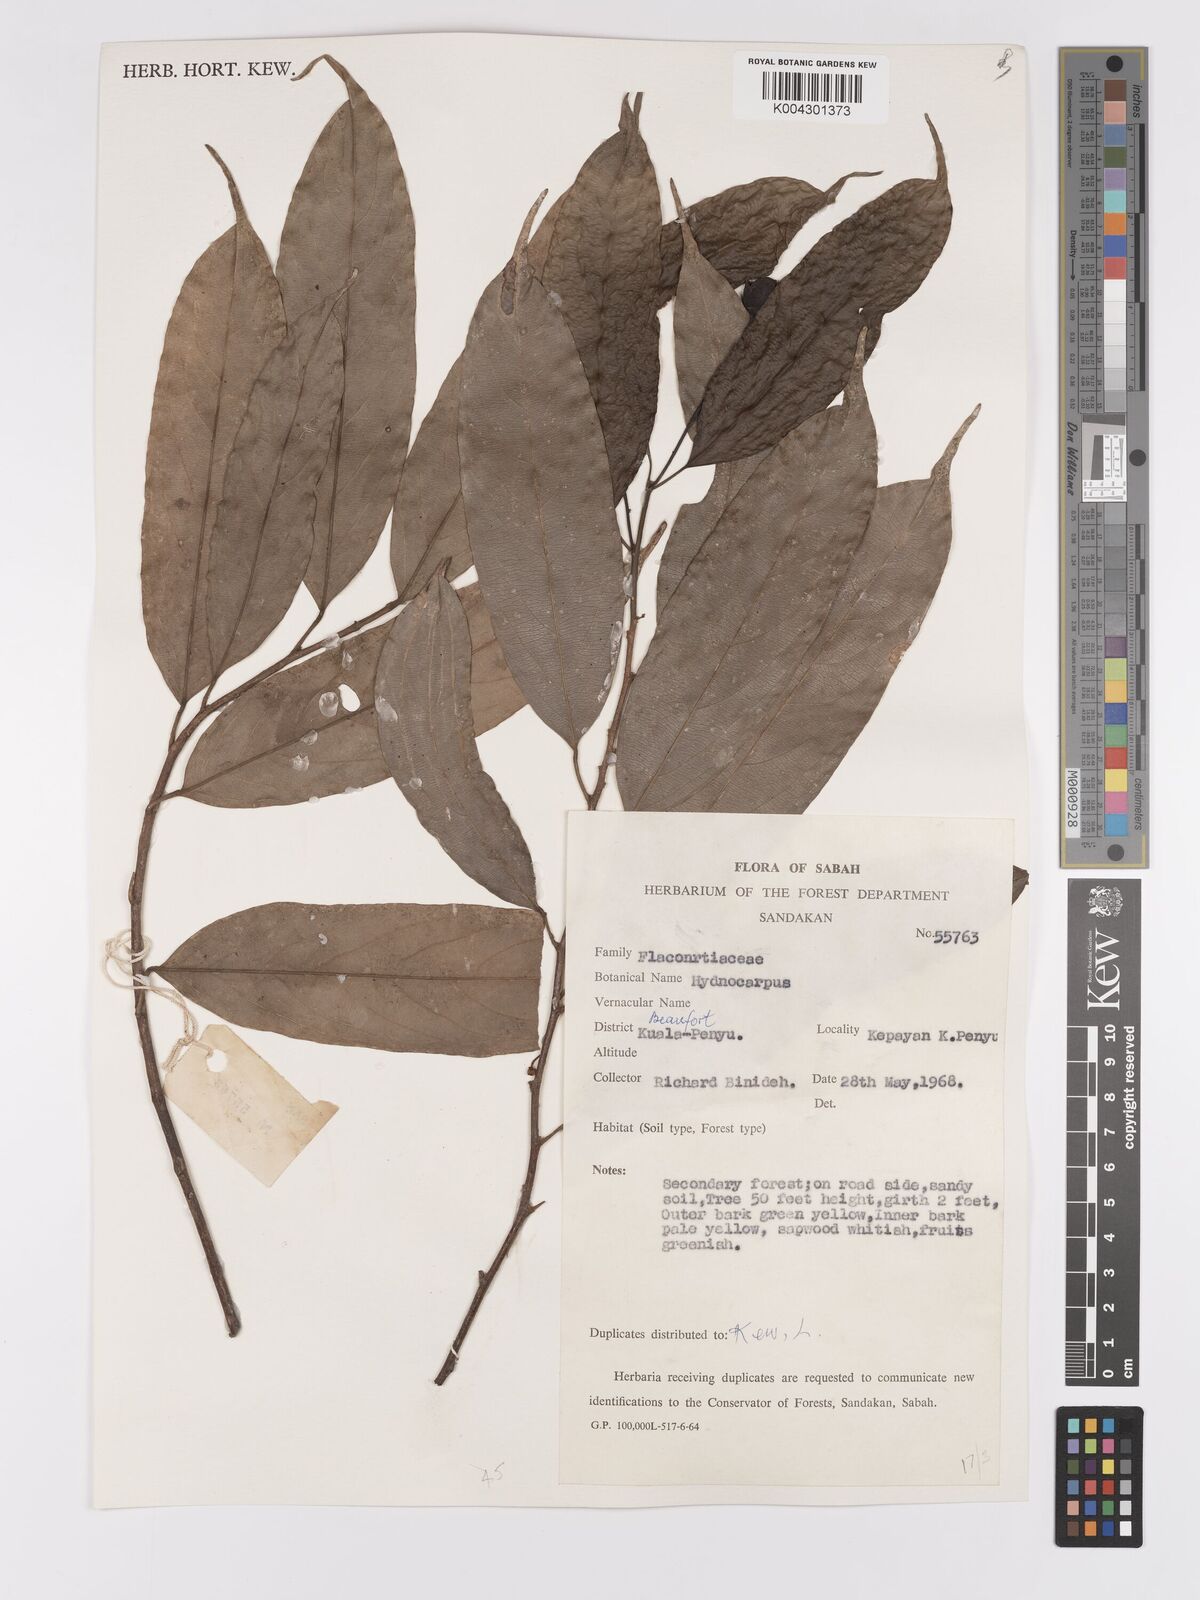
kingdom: Plantae
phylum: Tracheophyta
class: Magnoliopsida
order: Malpighiales
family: Achariaceae
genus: Hydnocarpus
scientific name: Hydnocarpus
